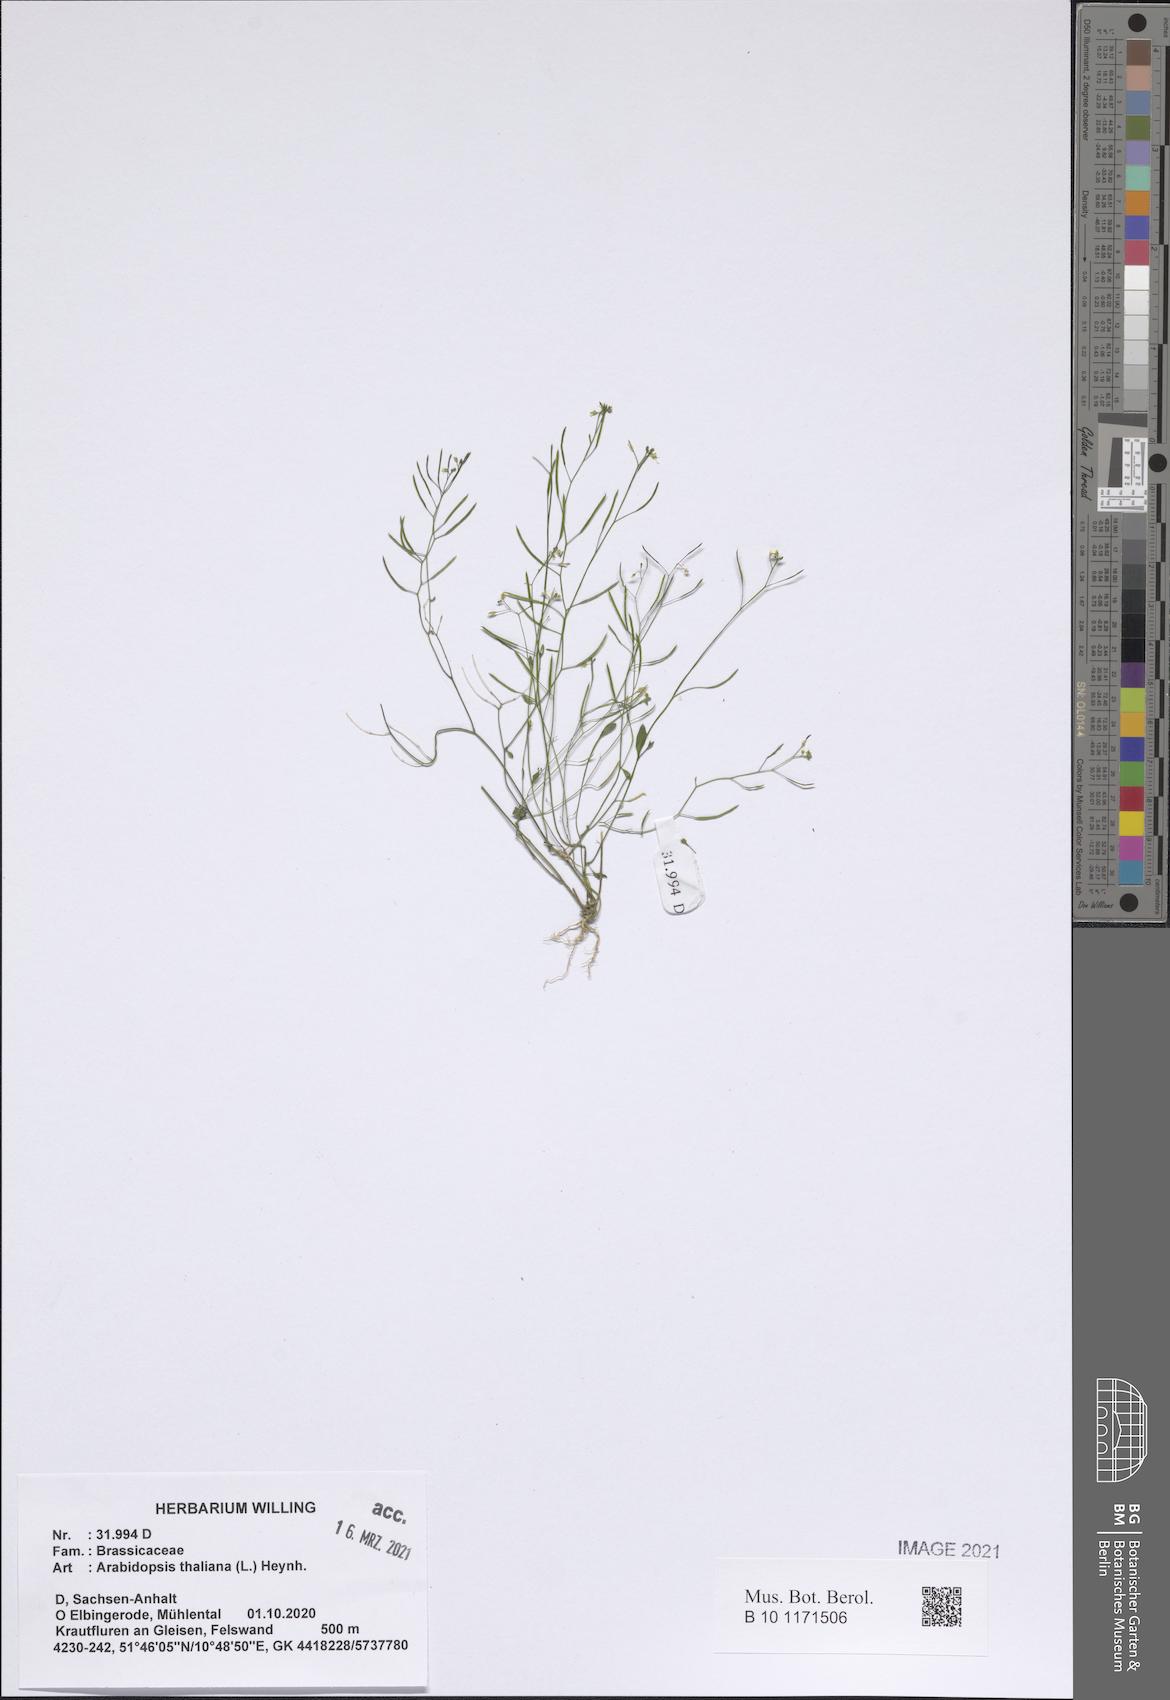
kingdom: Plantae
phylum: Tracheophyta
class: Magnoliopsida
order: Brassicales
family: Brassicaceae
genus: Arabidopsis
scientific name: Arabidopsis thaliana
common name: Thale cress
